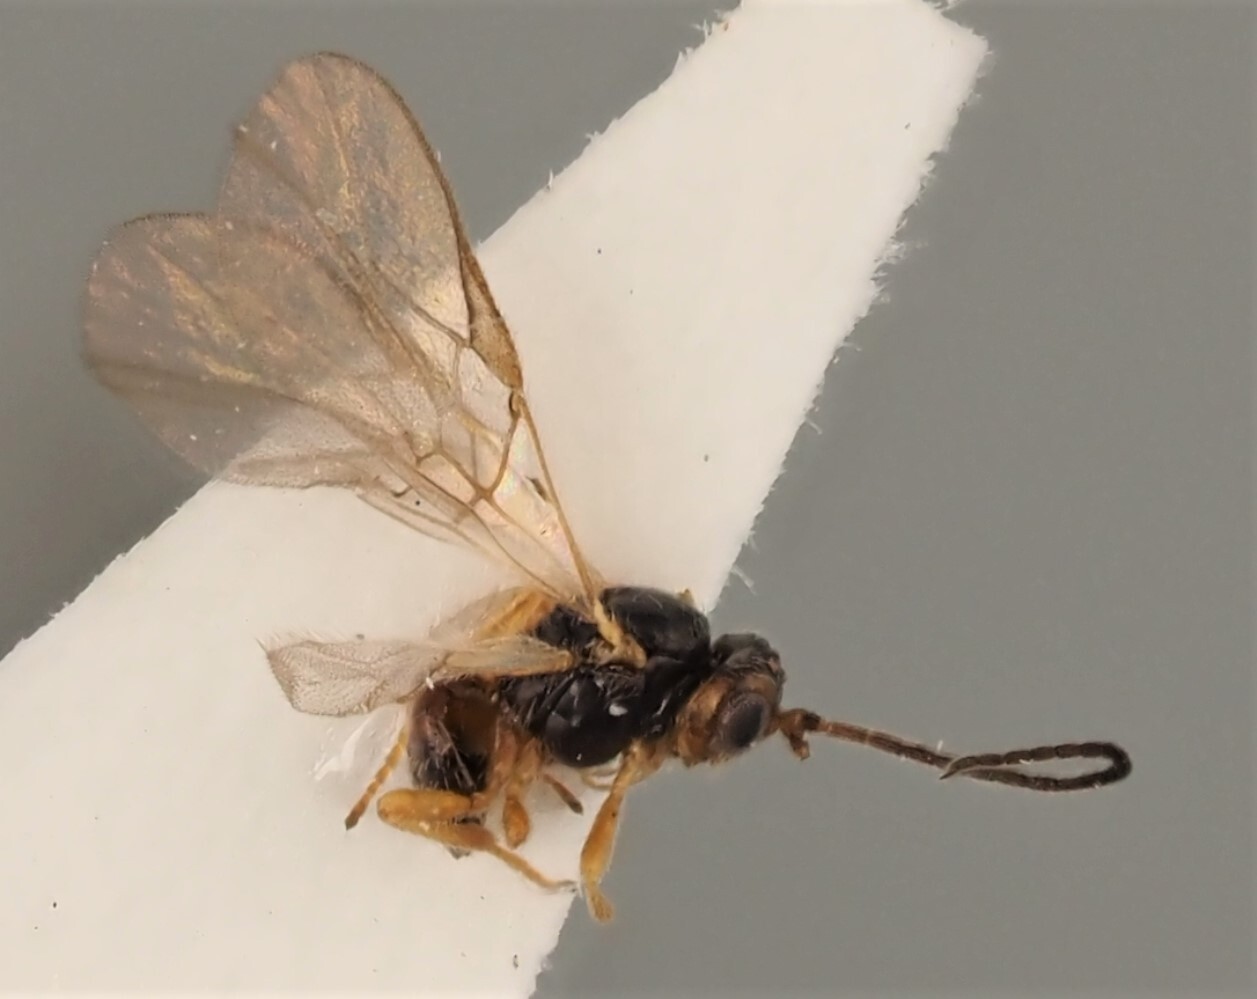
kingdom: Animalia
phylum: Arthropoda
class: Insecta
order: Hymenoptera
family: Braconidae
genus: Opius
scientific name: Opius pactus
